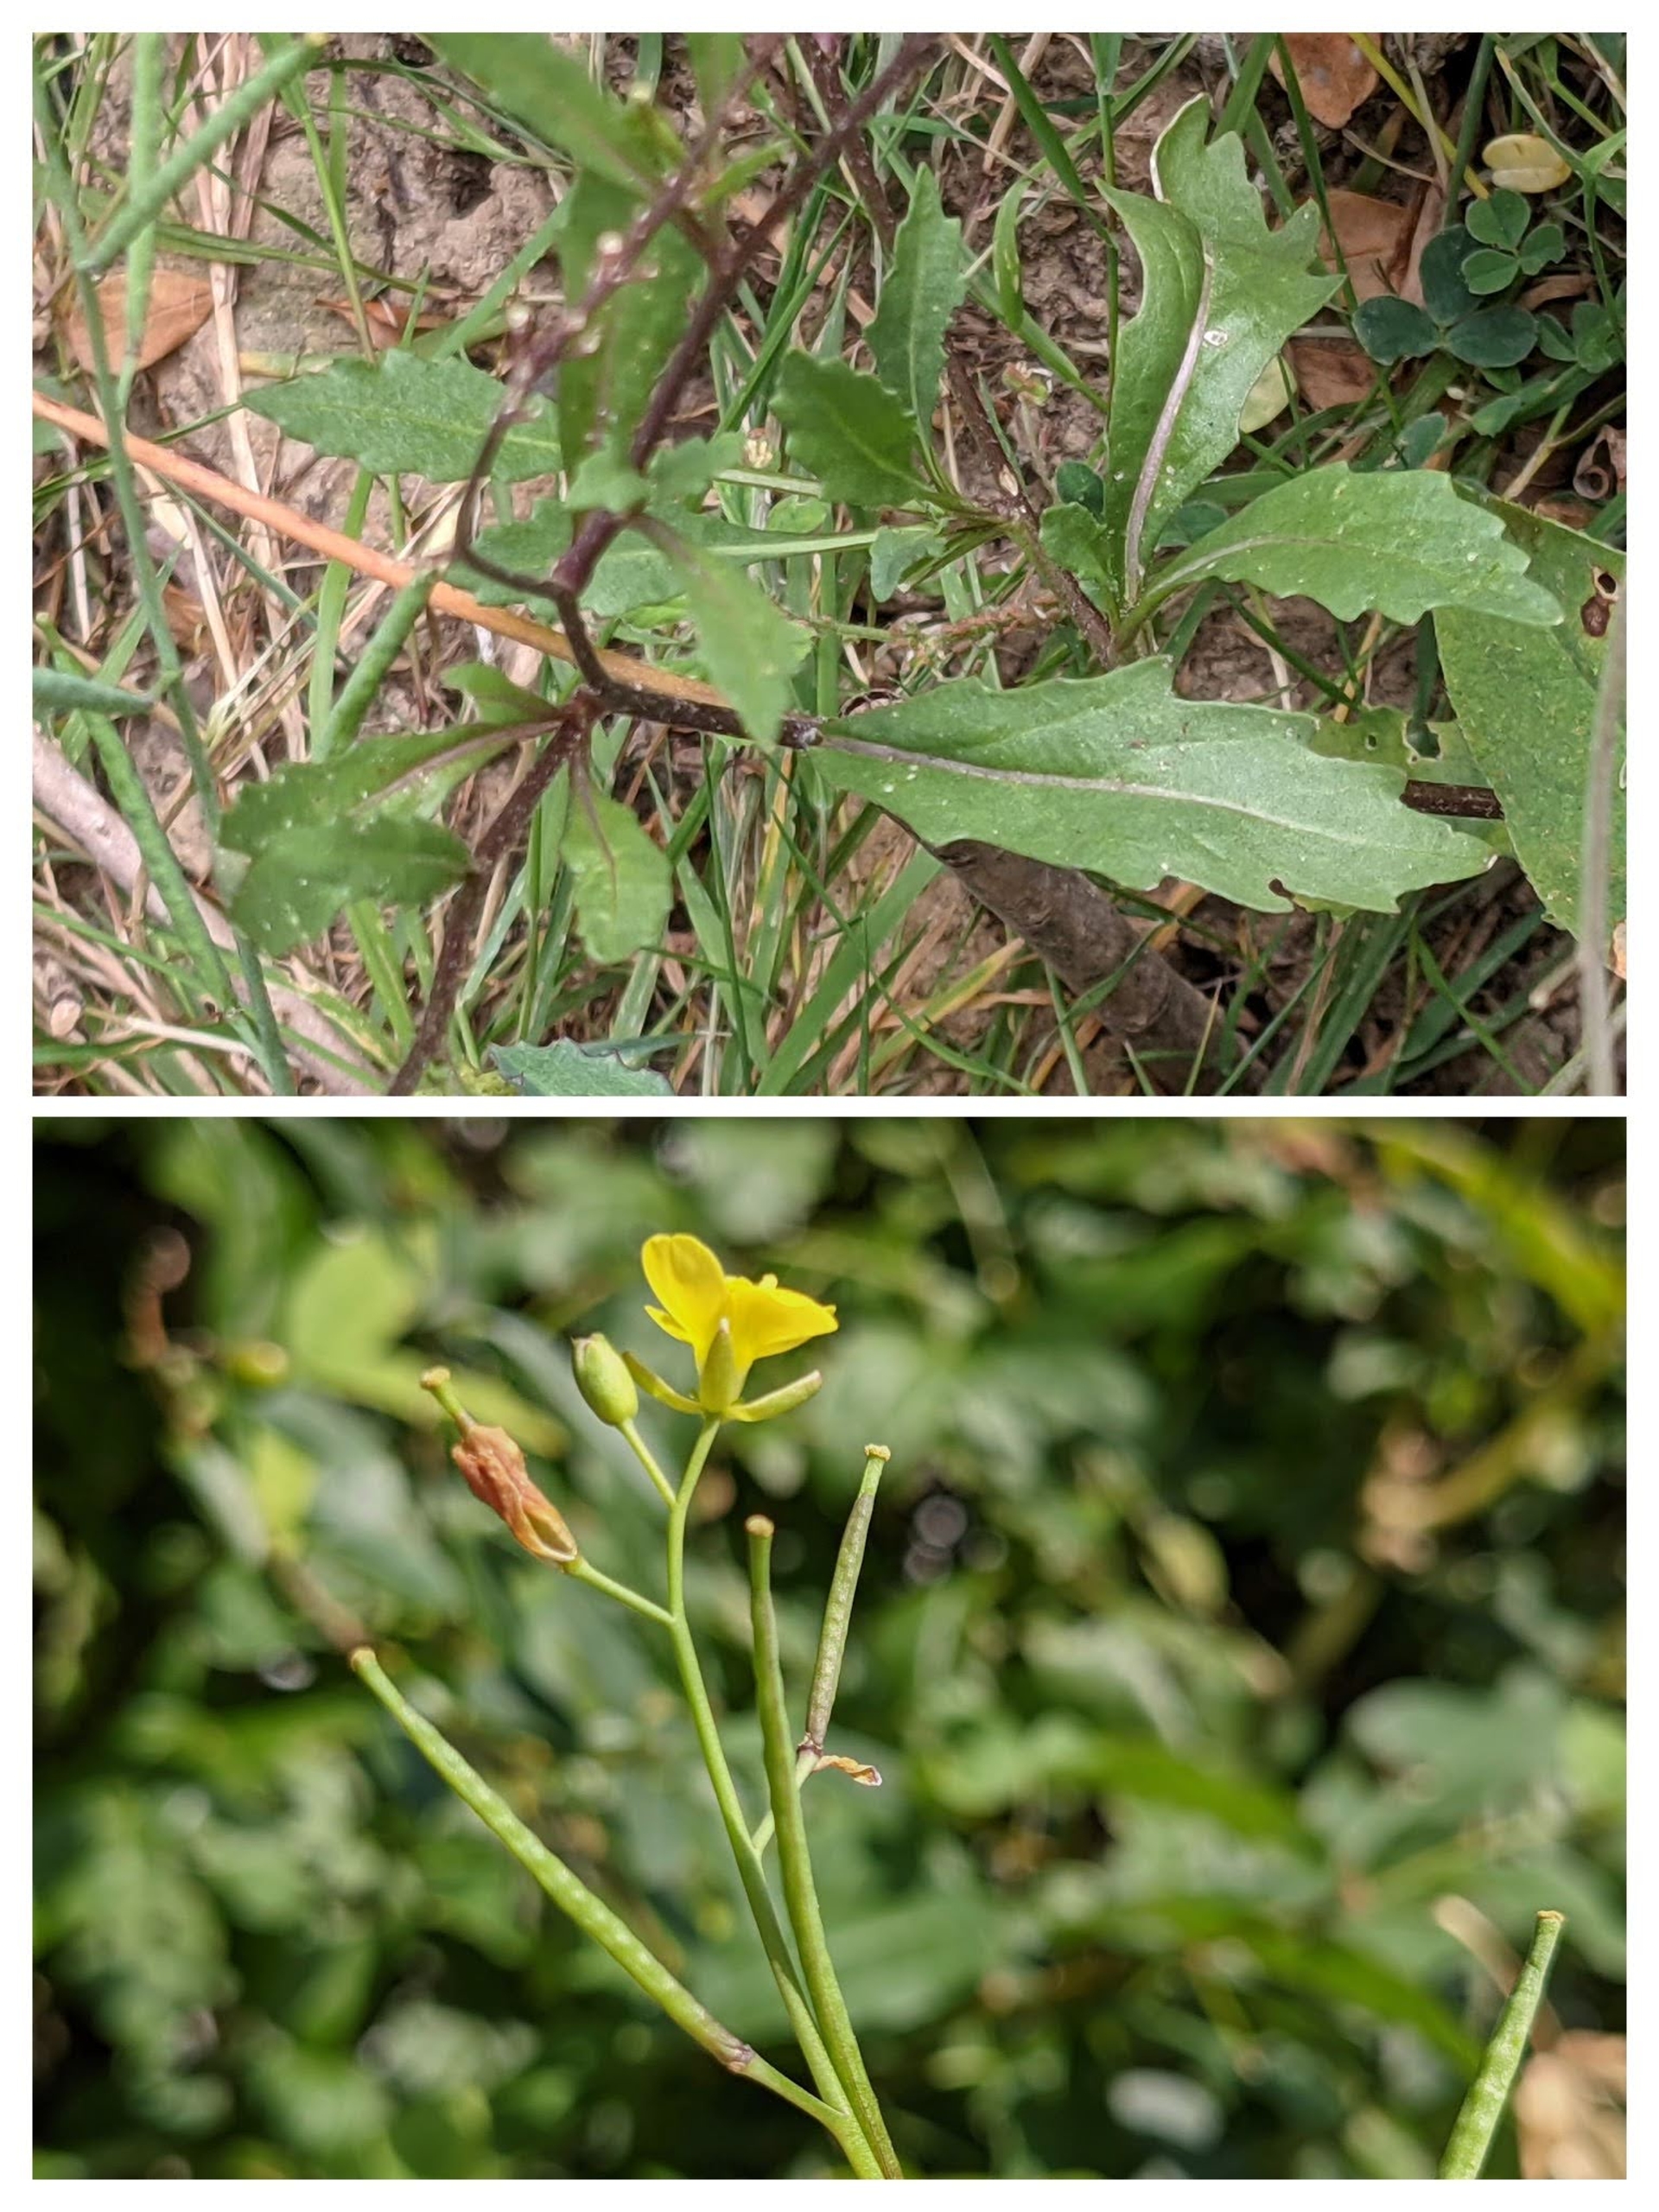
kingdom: Plantae
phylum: Tracheophyta
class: Magnoliopsida
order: Brassicales
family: Brassicaceae
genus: Diplotaxis
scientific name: Diplotaxis muralis
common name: Mursennep
